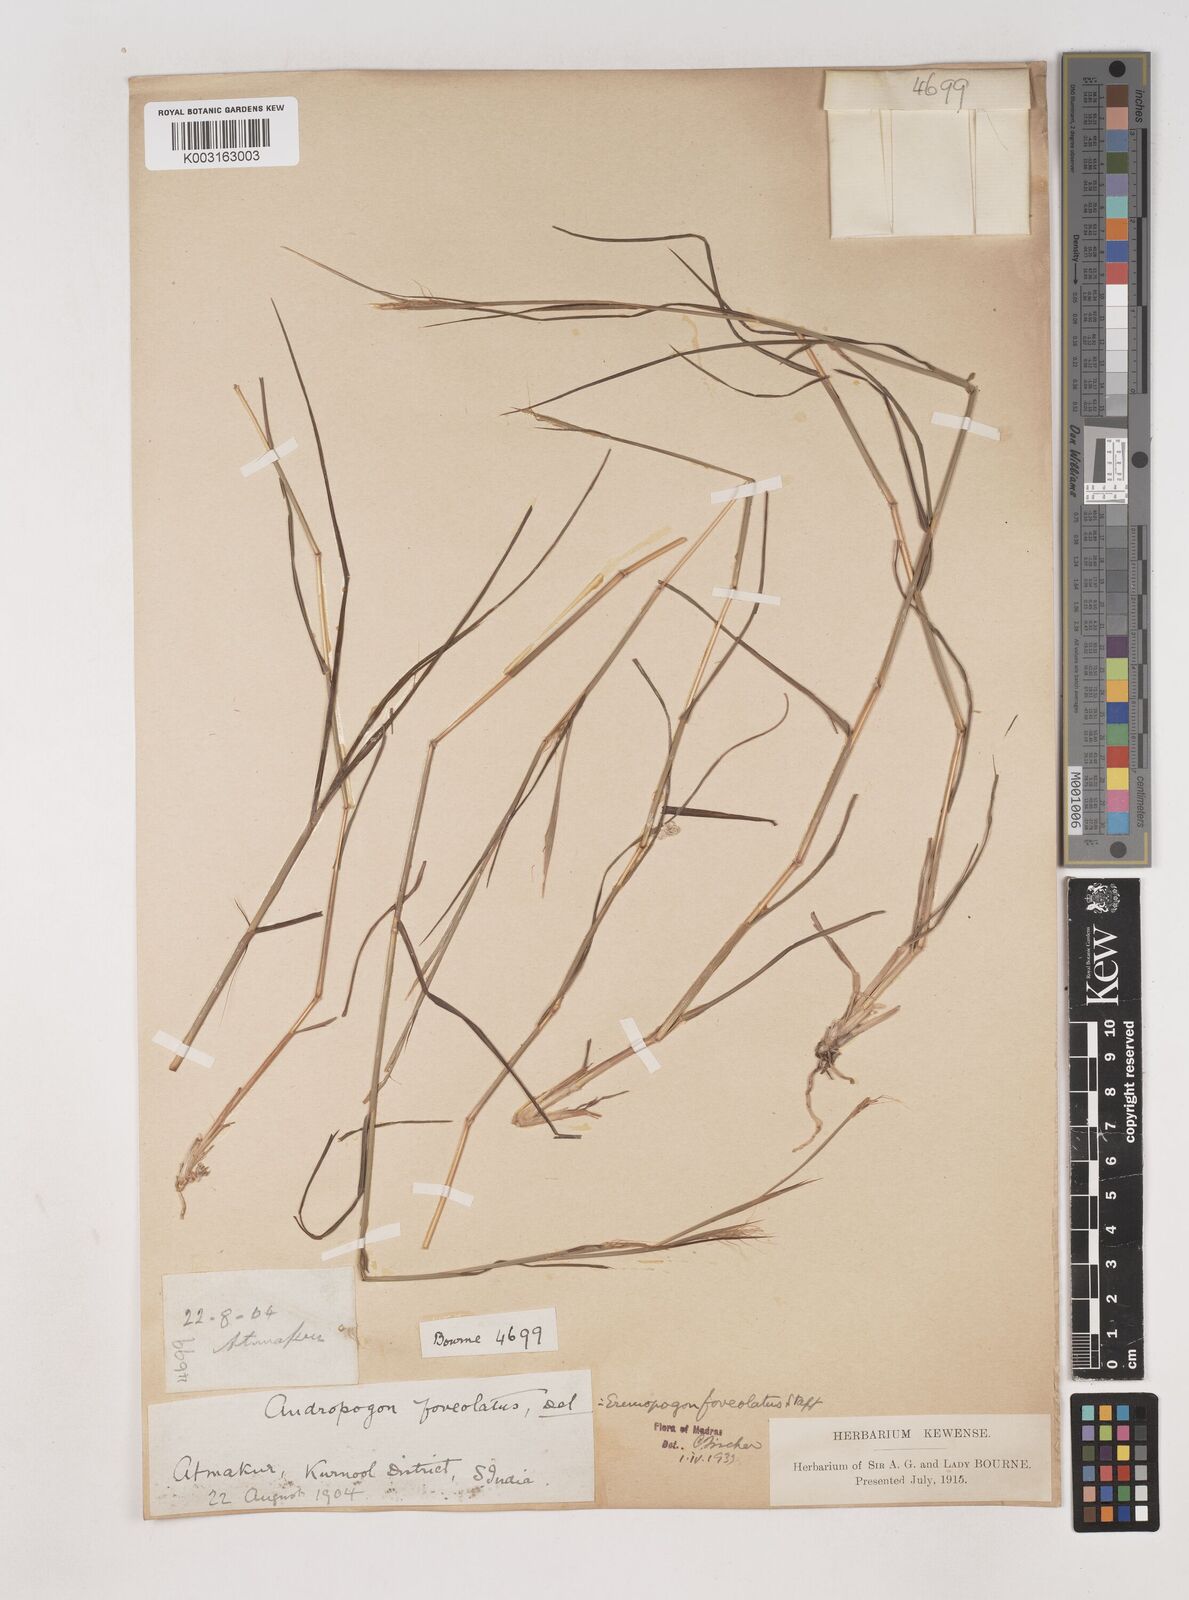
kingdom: Plantae
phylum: Tracheophyta
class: Liliopsida
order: Poales
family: Poaceae
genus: Dichanthium
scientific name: Dichanthium foveolatum
